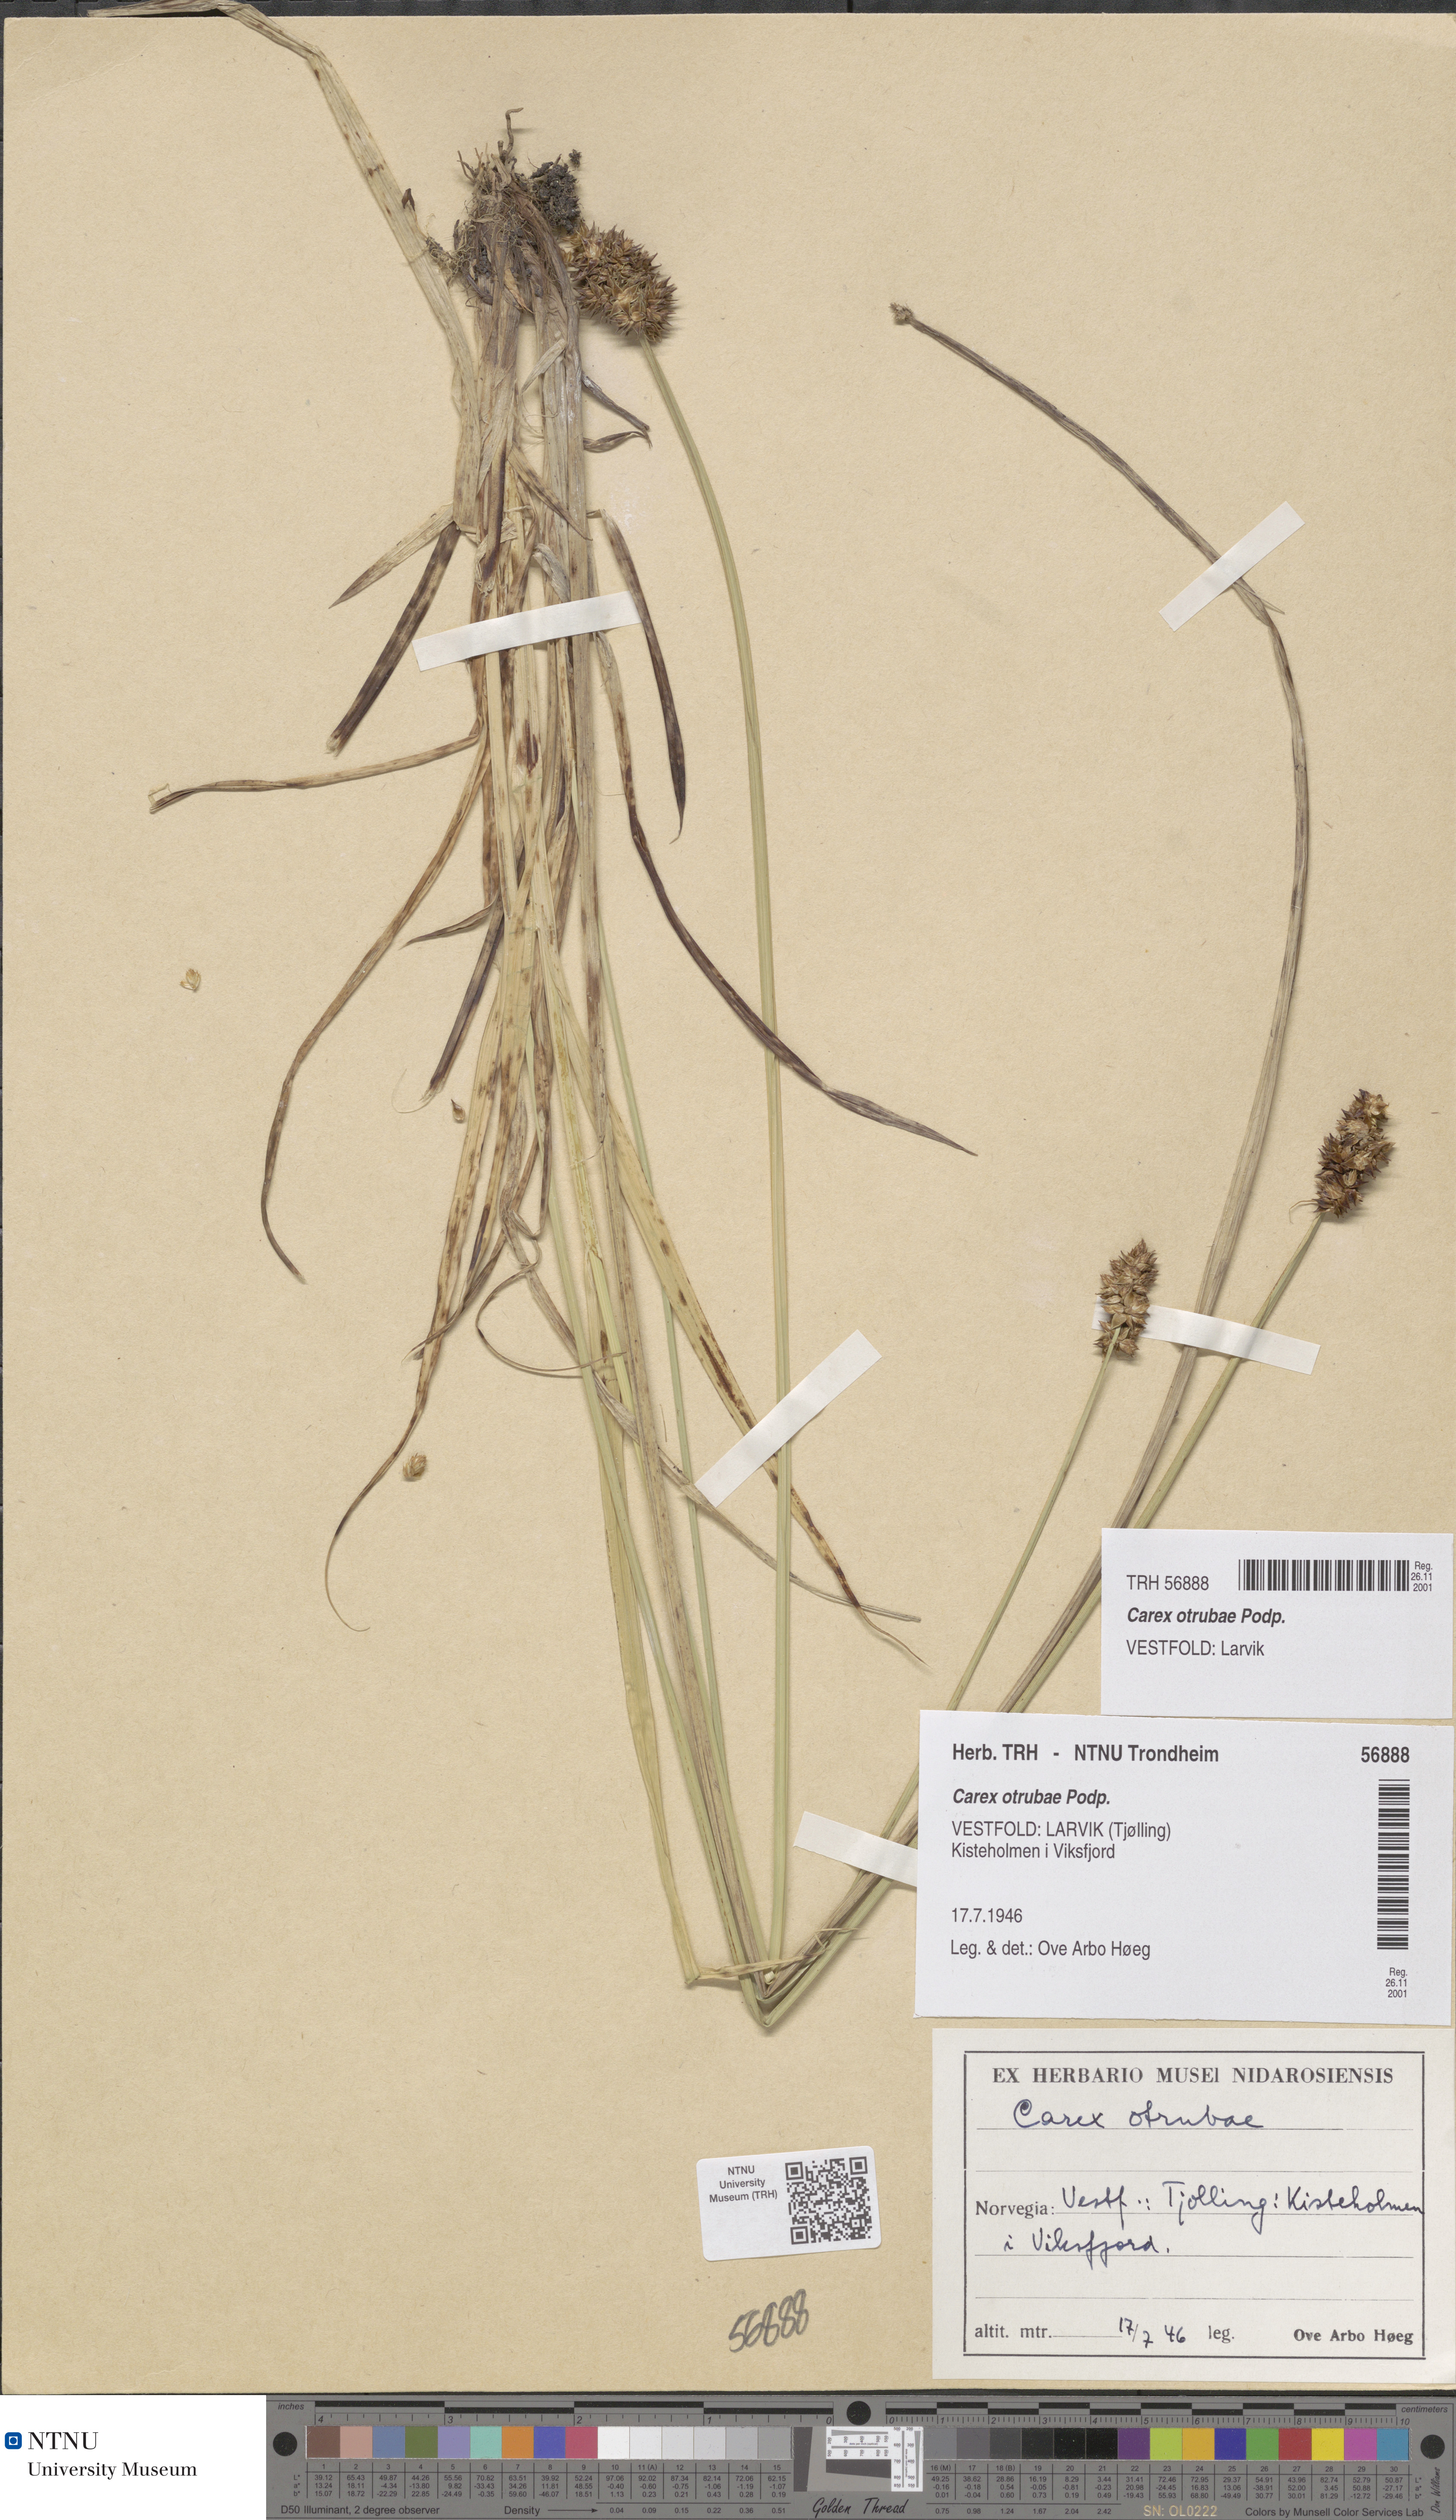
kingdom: Plantae
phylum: Tracheophyta
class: Liliopsida
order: Poales
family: Cyperaceae
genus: Carex
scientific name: Carex otrubae
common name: False fox-sedge
